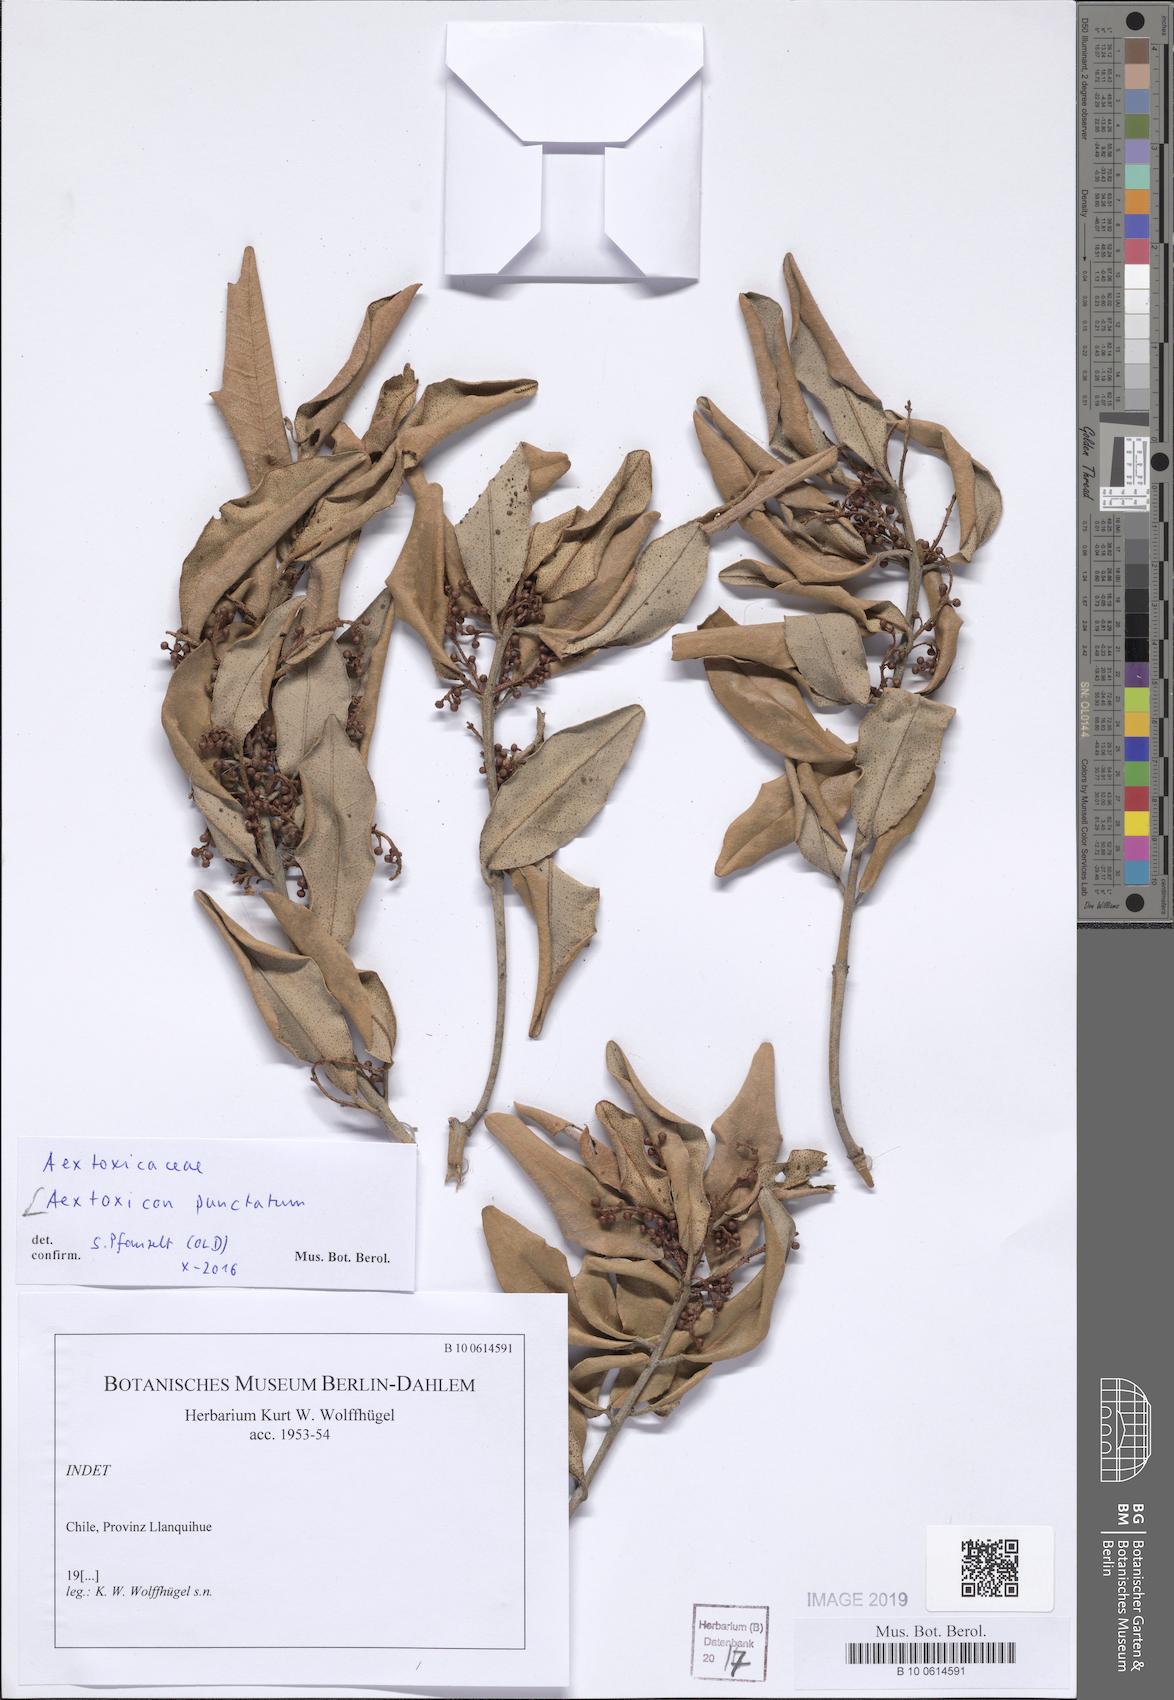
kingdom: Plantae
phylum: Tracheophyta
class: Magnoliopsida
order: Berberidopsidales
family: Aextoxicaceae
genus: Aextoxicon
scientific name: Aextoxicon punctatum
